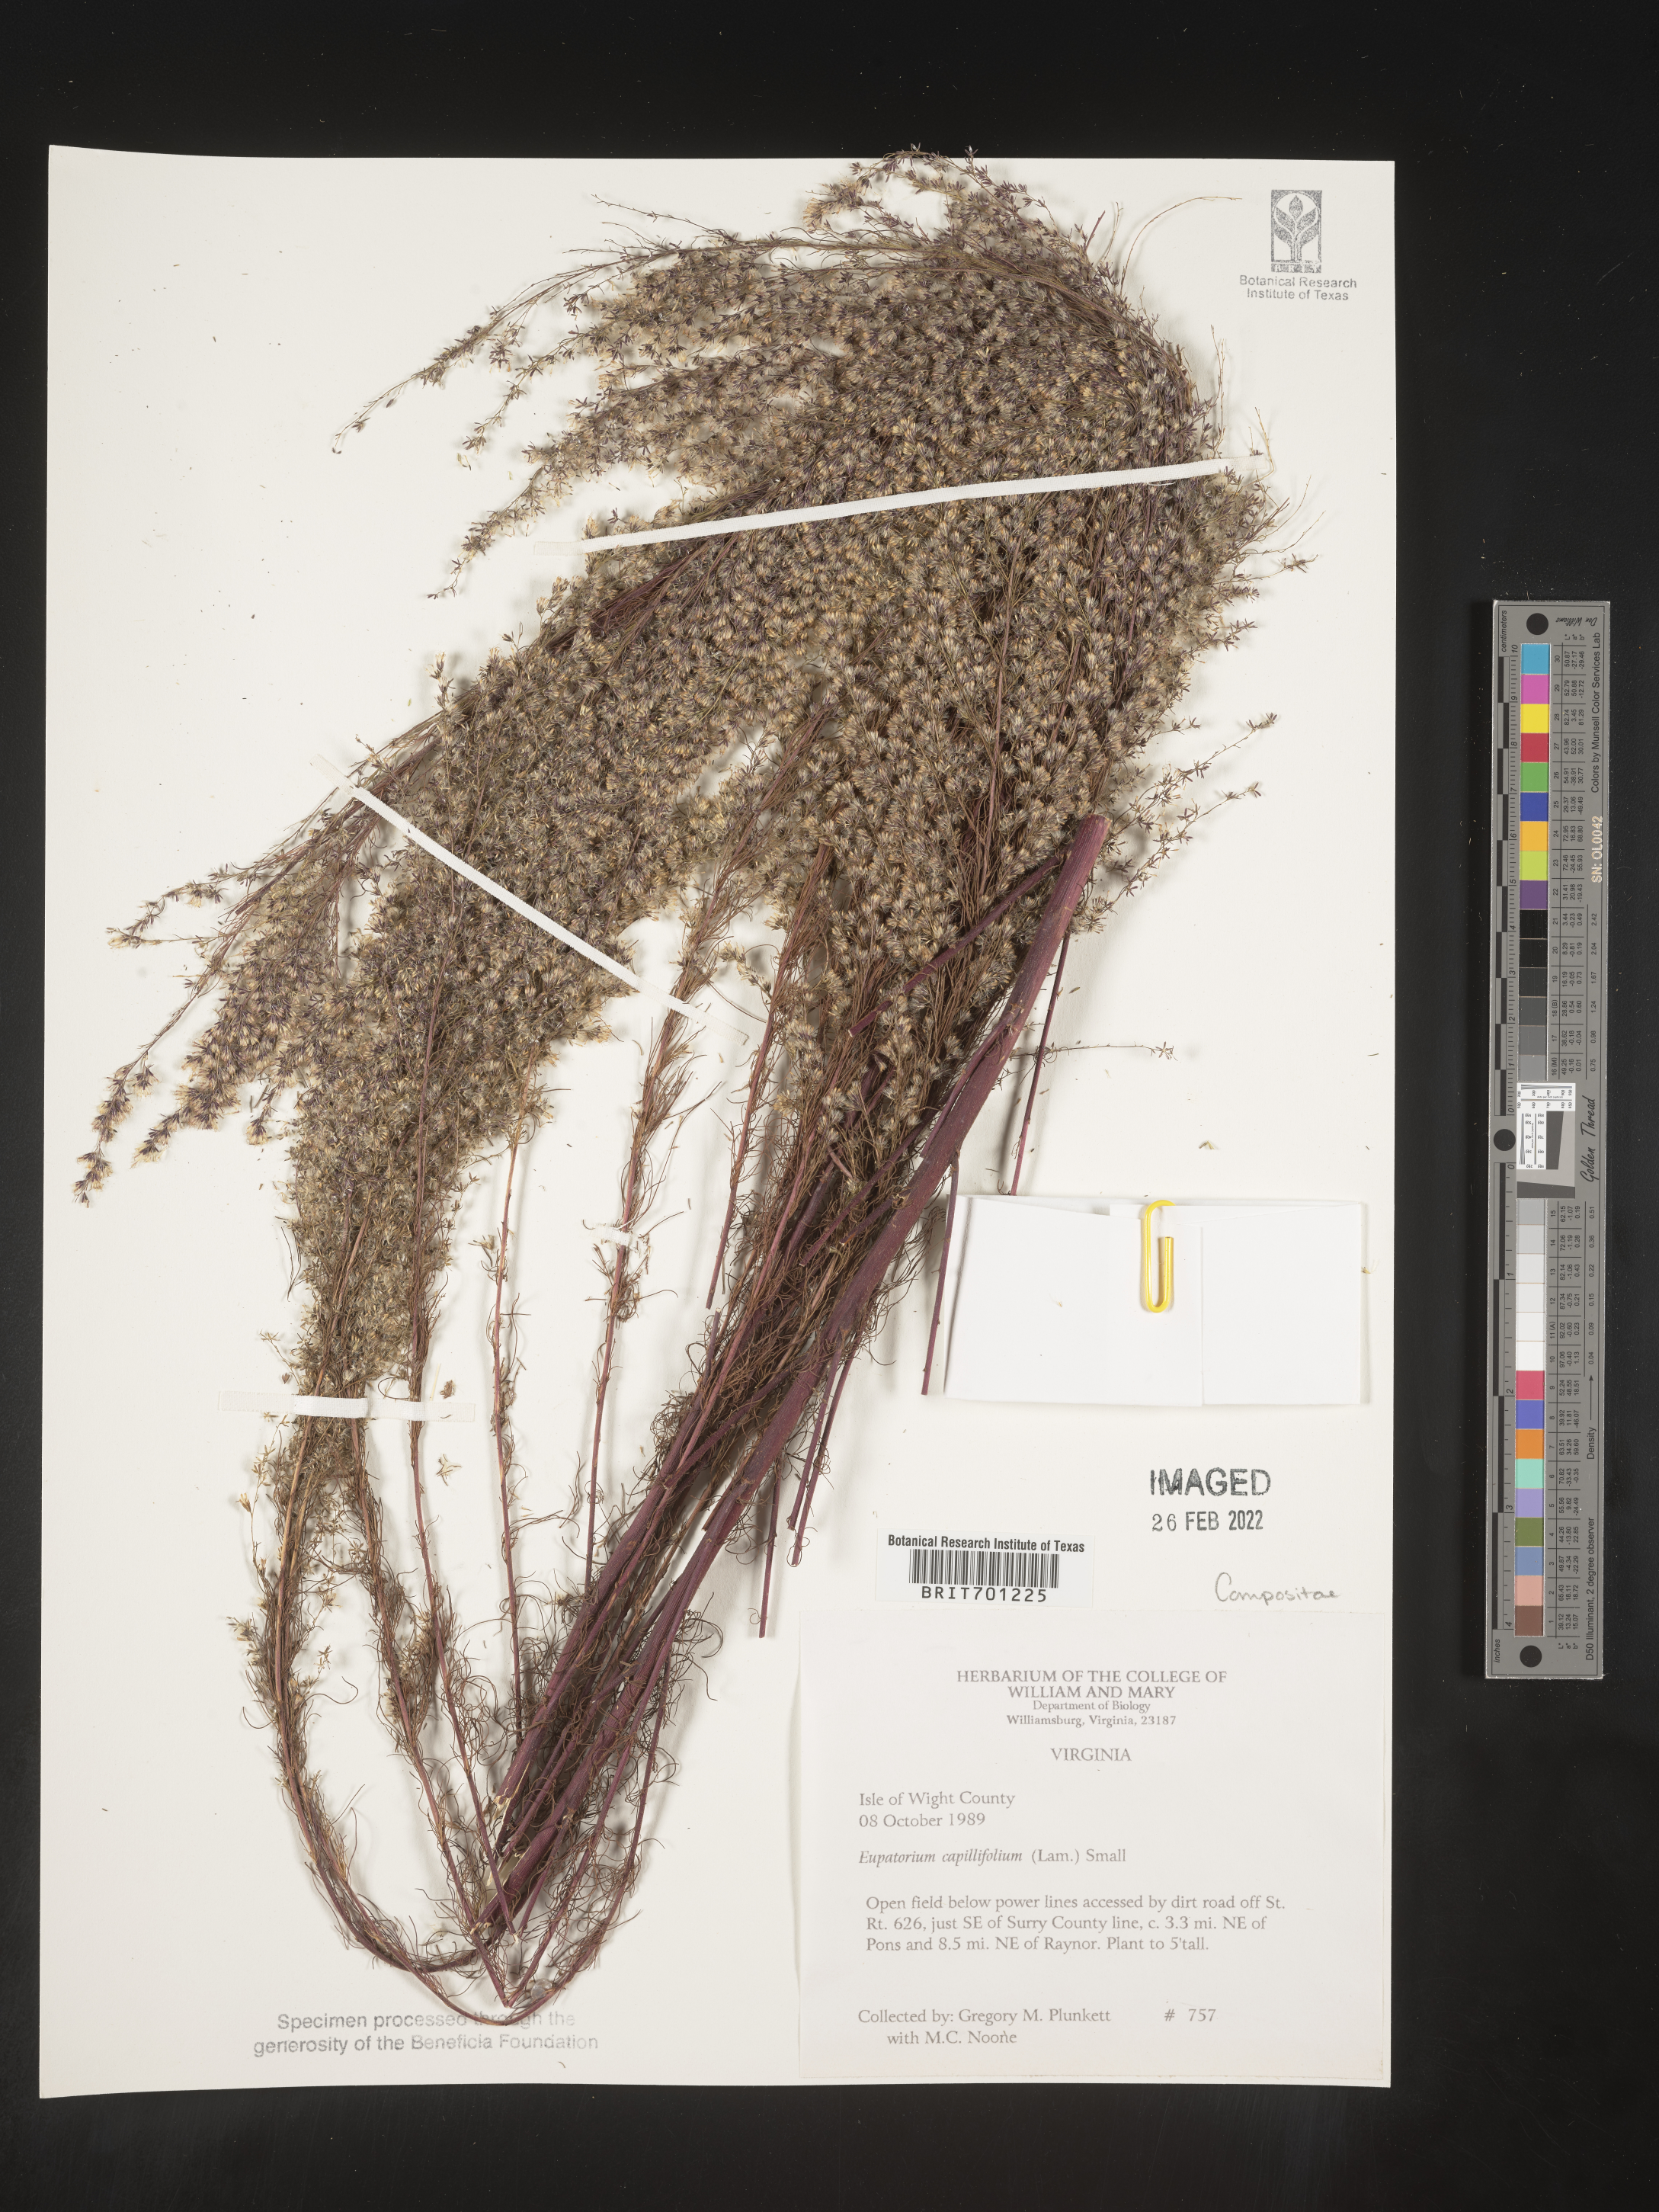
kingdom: Plantae
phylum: Tracheophyta
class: Magnoliopsida
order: Asterales
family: Asteraceae
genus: Eupatorium
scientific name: Eupatorium capillifolium
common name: Dog-fennel
